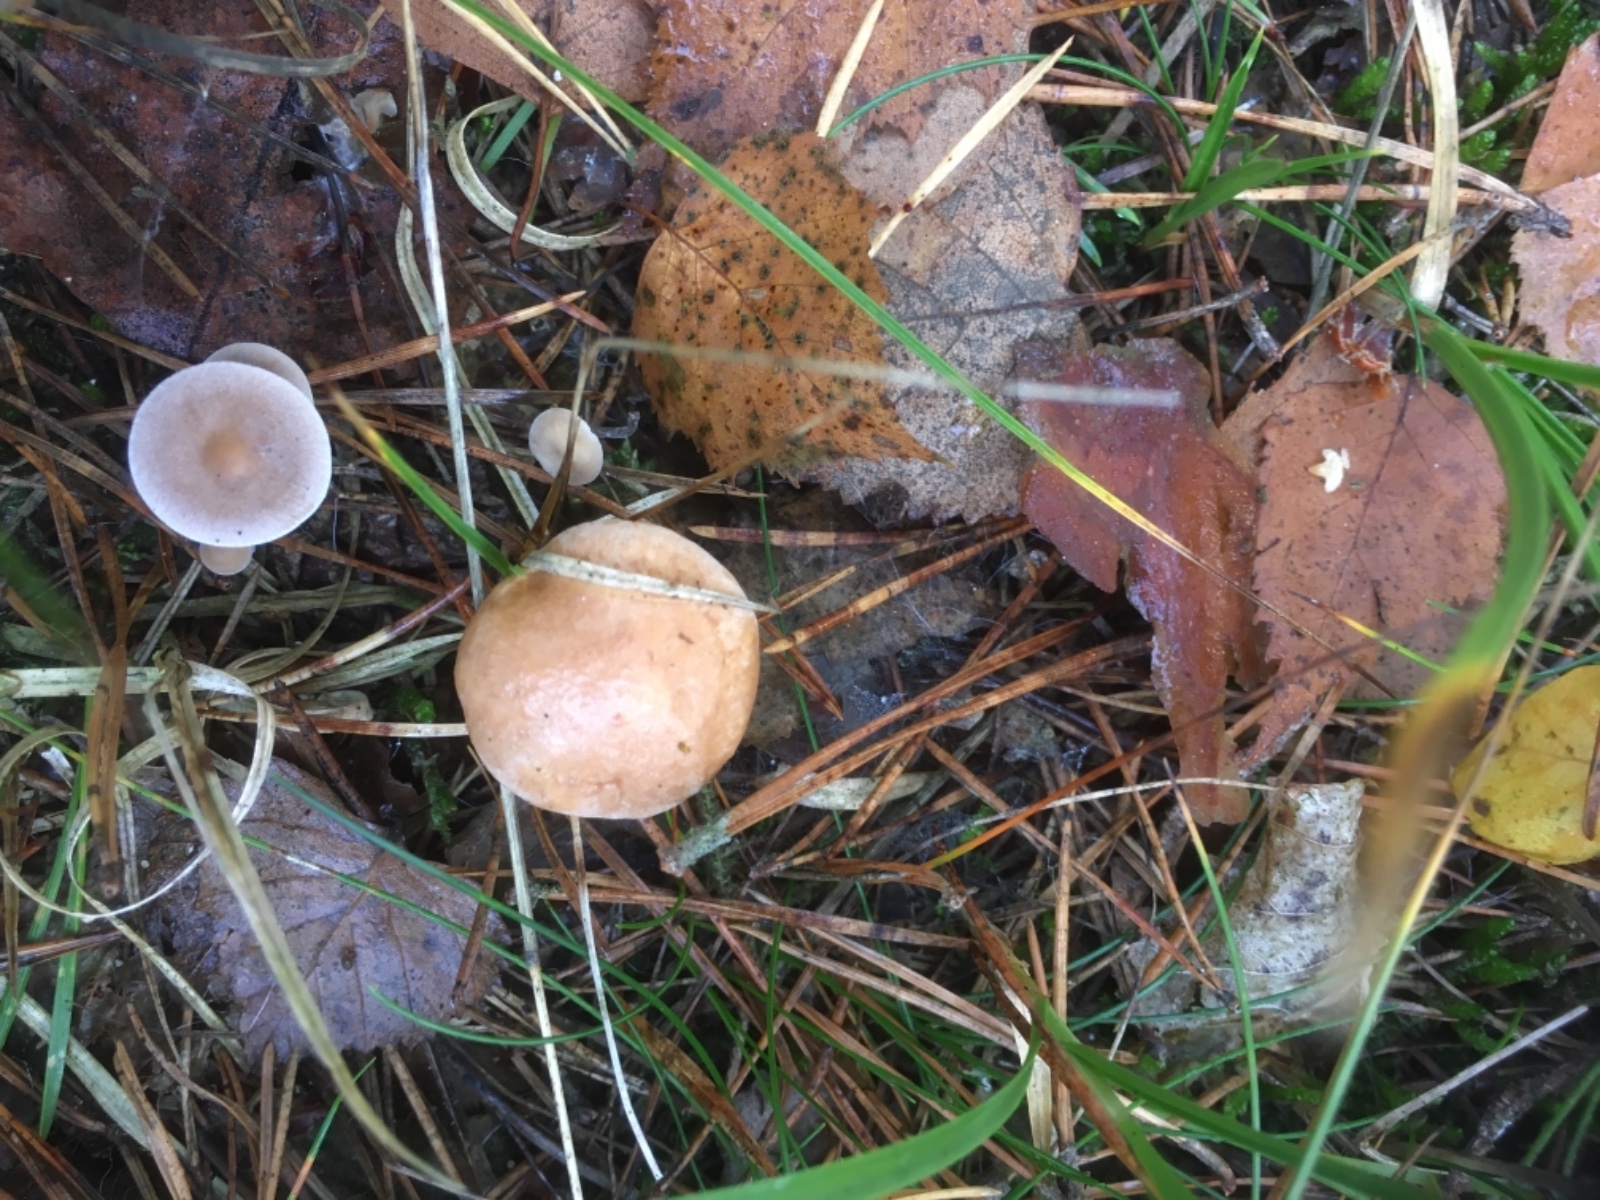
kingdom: Fungi
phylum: Basidiomycota
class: Agaricomycetes
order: Boletales
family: Suillaceae
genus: Suillus
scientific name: Suillus bovinus
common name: grovporet slimrørhat
